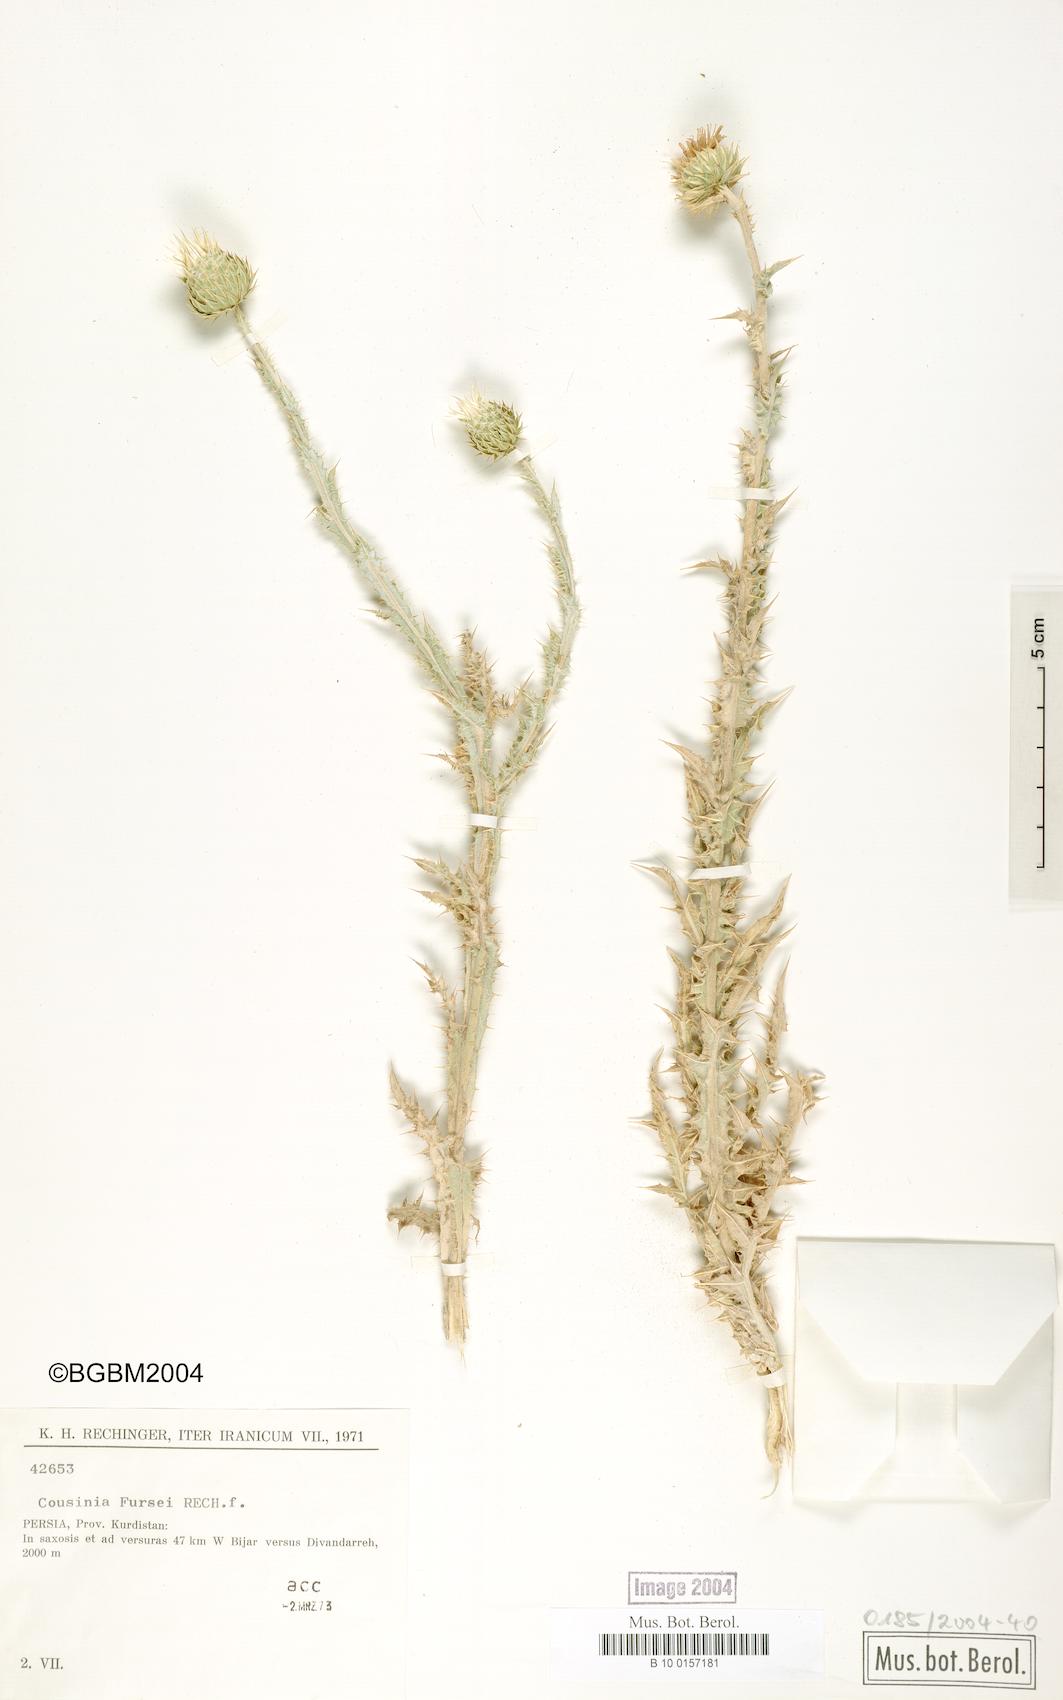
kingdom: Plantae
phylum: Tracheophyta
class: Magnoliopsida
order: Asterales
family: Asteraceae
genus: Cousinia
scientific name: Cousinia fursei
